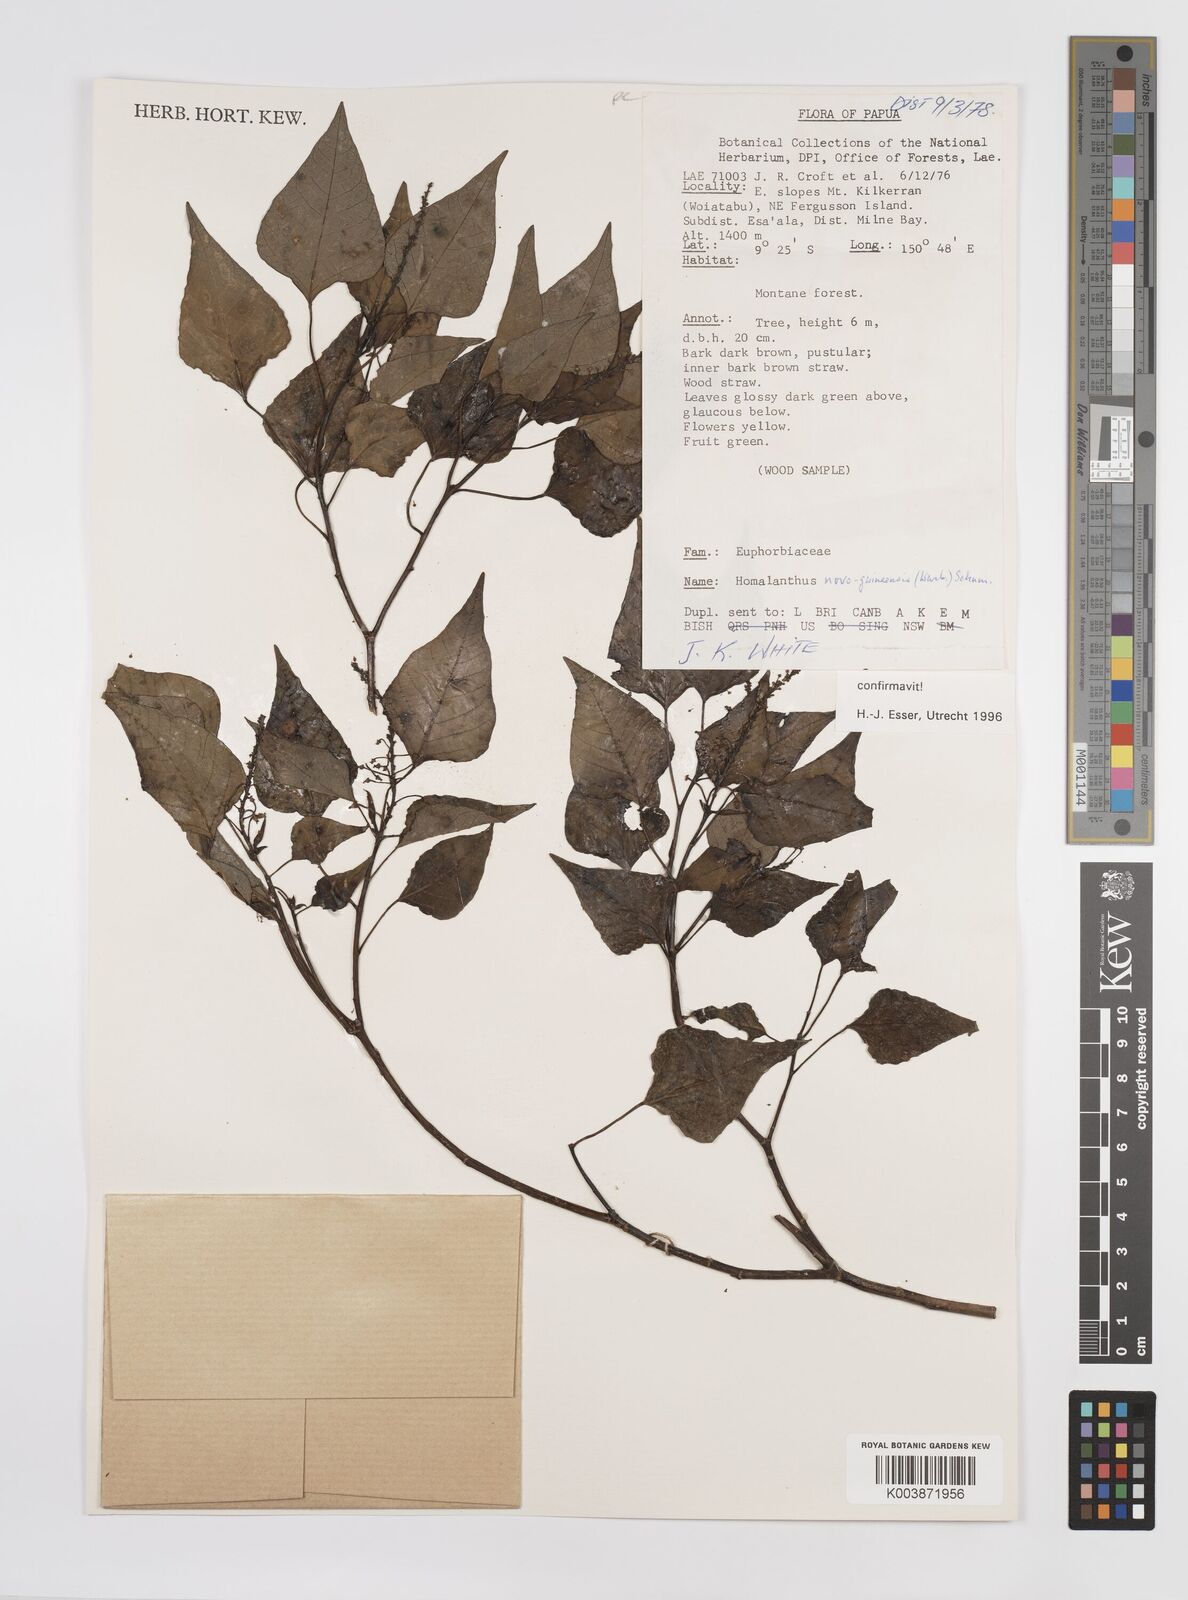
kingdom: Plantae
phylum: Tracheophyta
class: Magnoliopsida
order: Malpighiales
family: Euphorbiaceae
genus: Homalanthus
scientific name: Homalanthus novoguineensis
